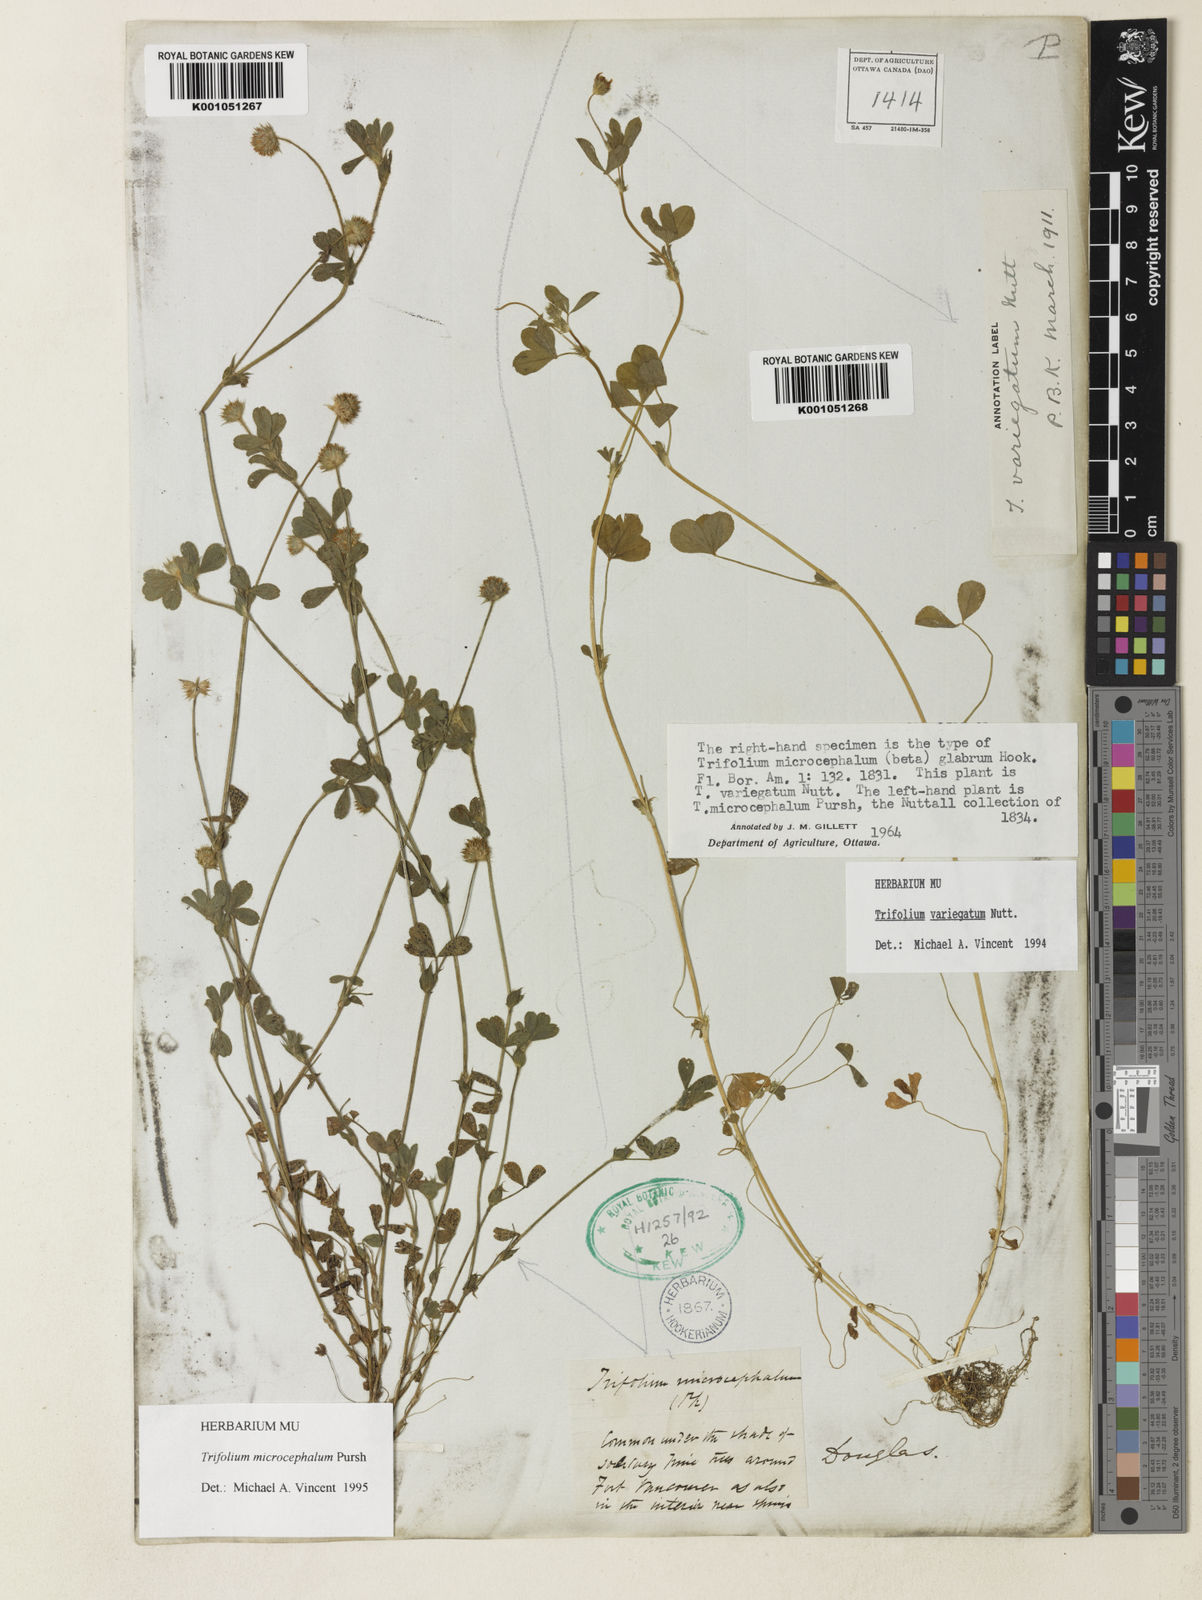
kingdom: Plantae
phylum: Tracheophyta
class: Magnoliopsida
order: Fabales
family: Fabaceae
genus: Trifolium
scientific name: Trifolium microcephalum
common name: Maiden clover
